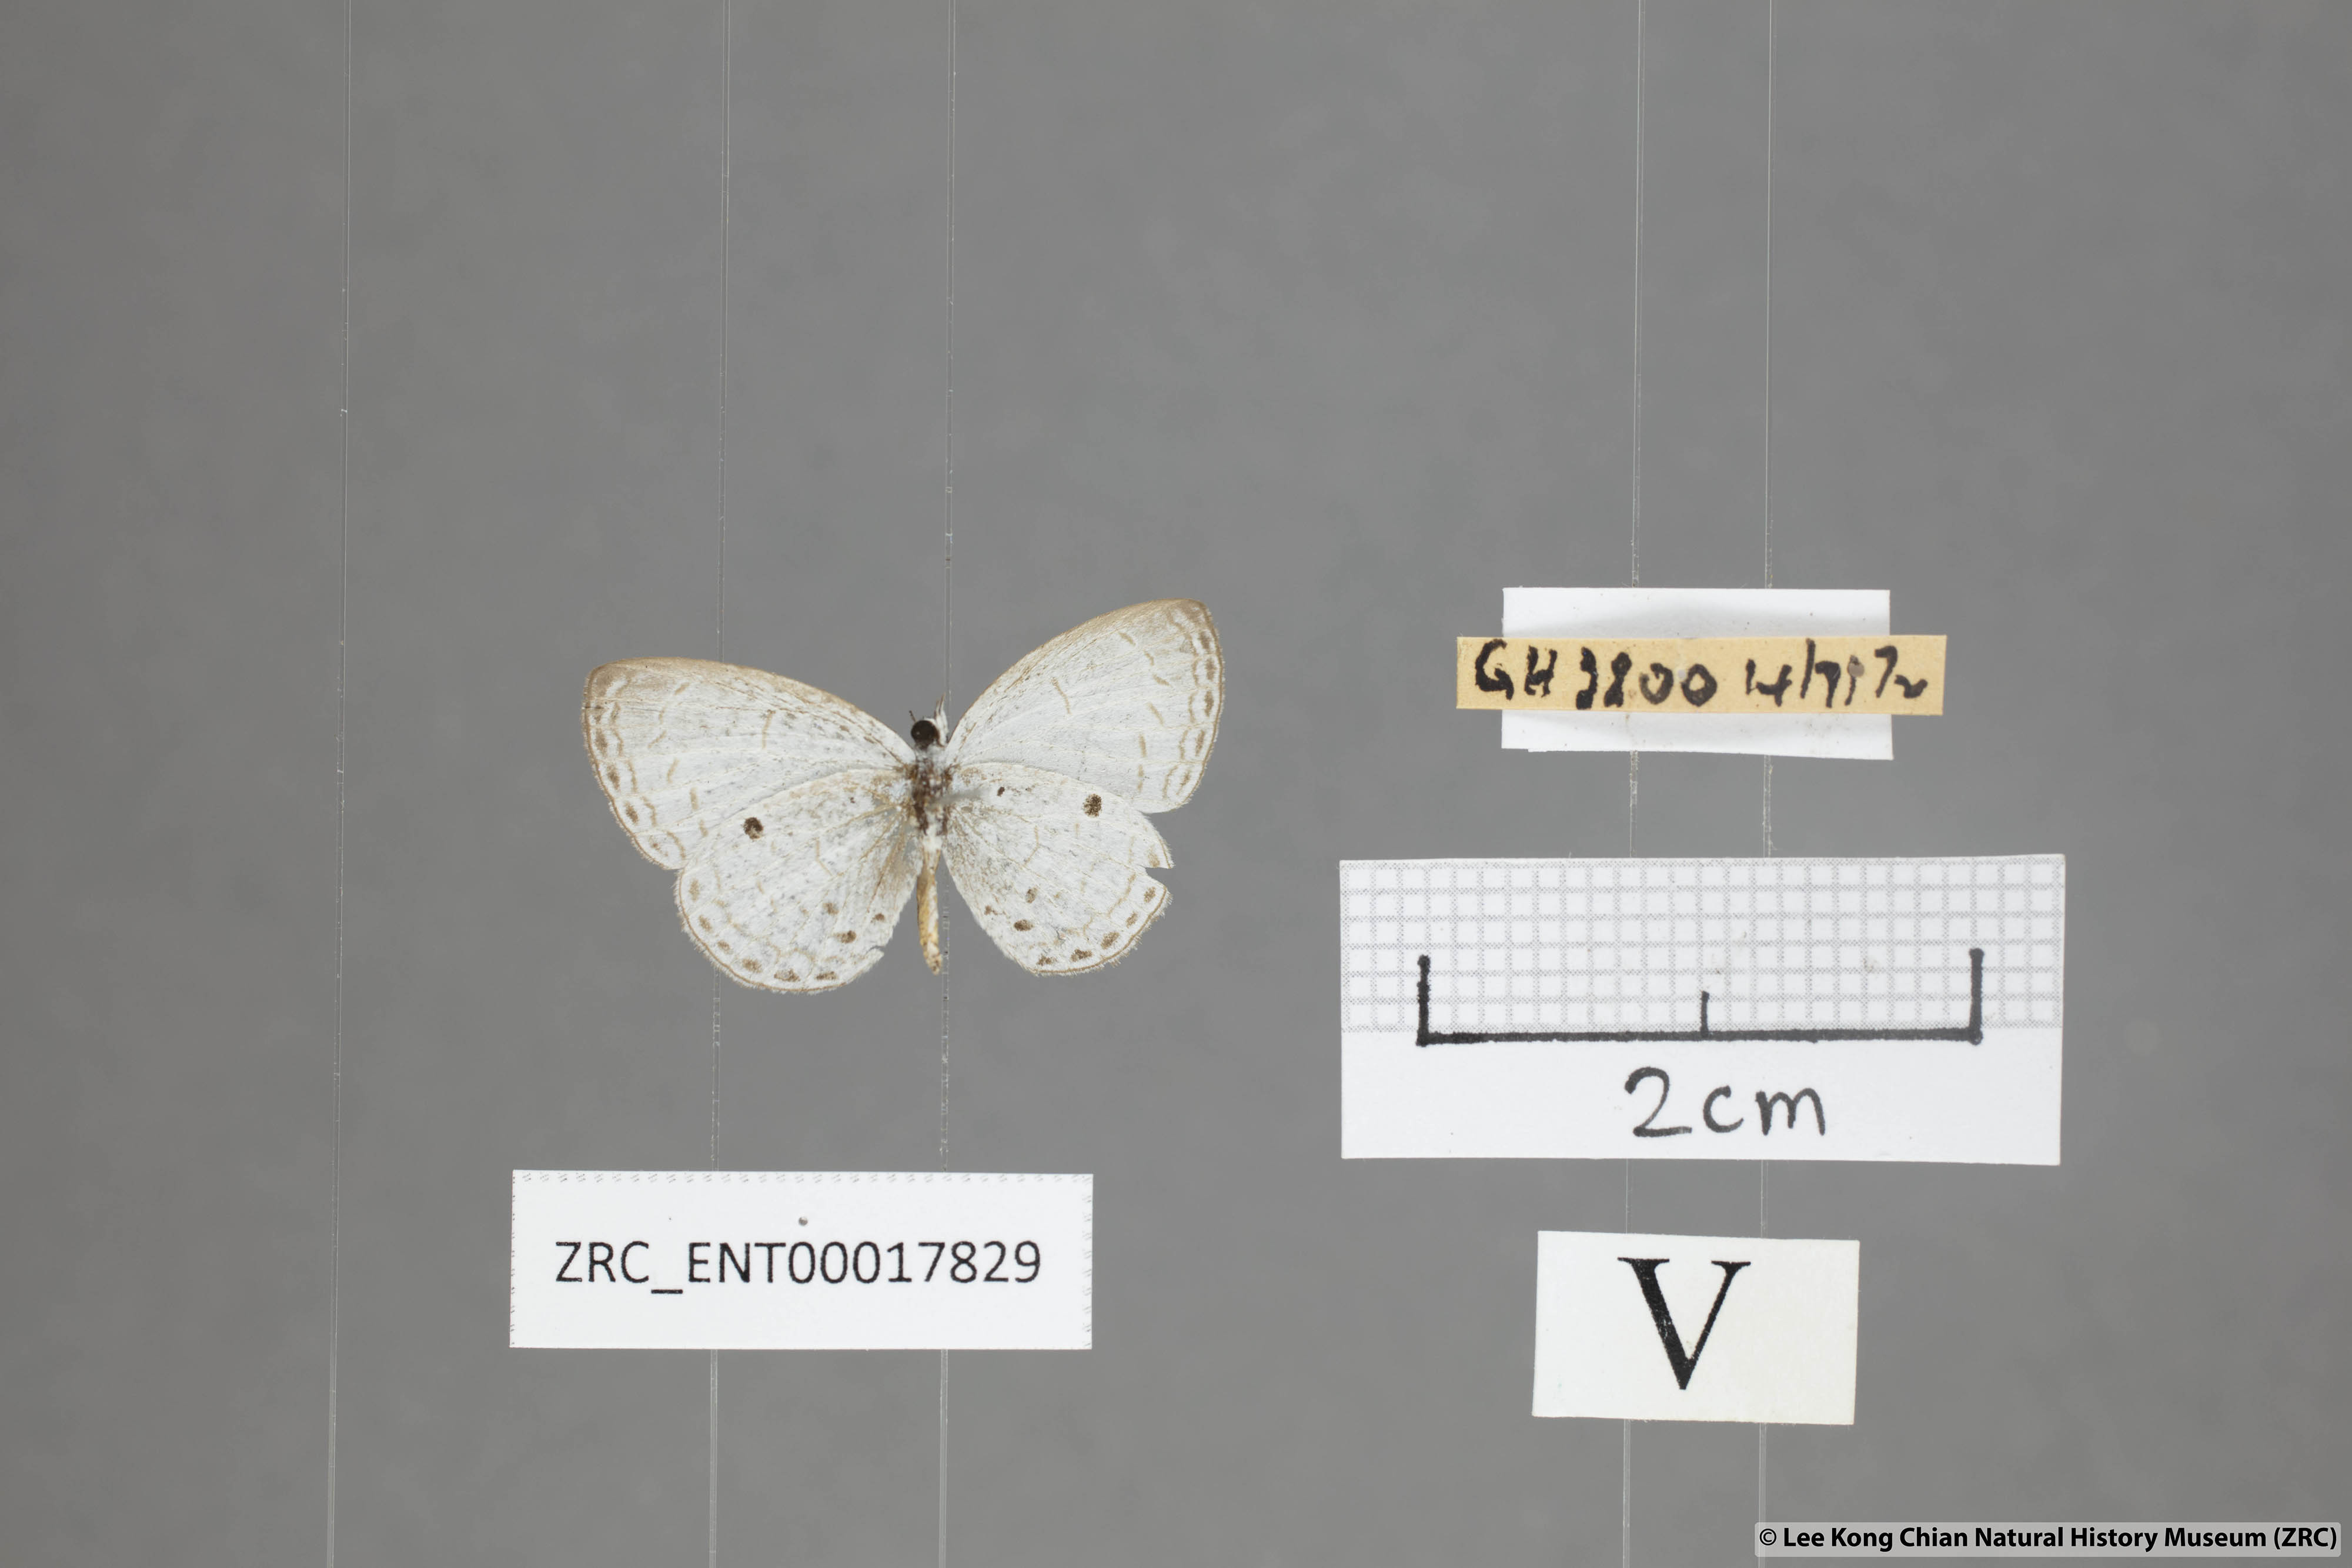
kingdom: Animalia
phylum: Arthropoda
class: Insecta
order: Lepidoptera
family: Lycaenidae
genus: Cebrella
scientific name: Cebrella
